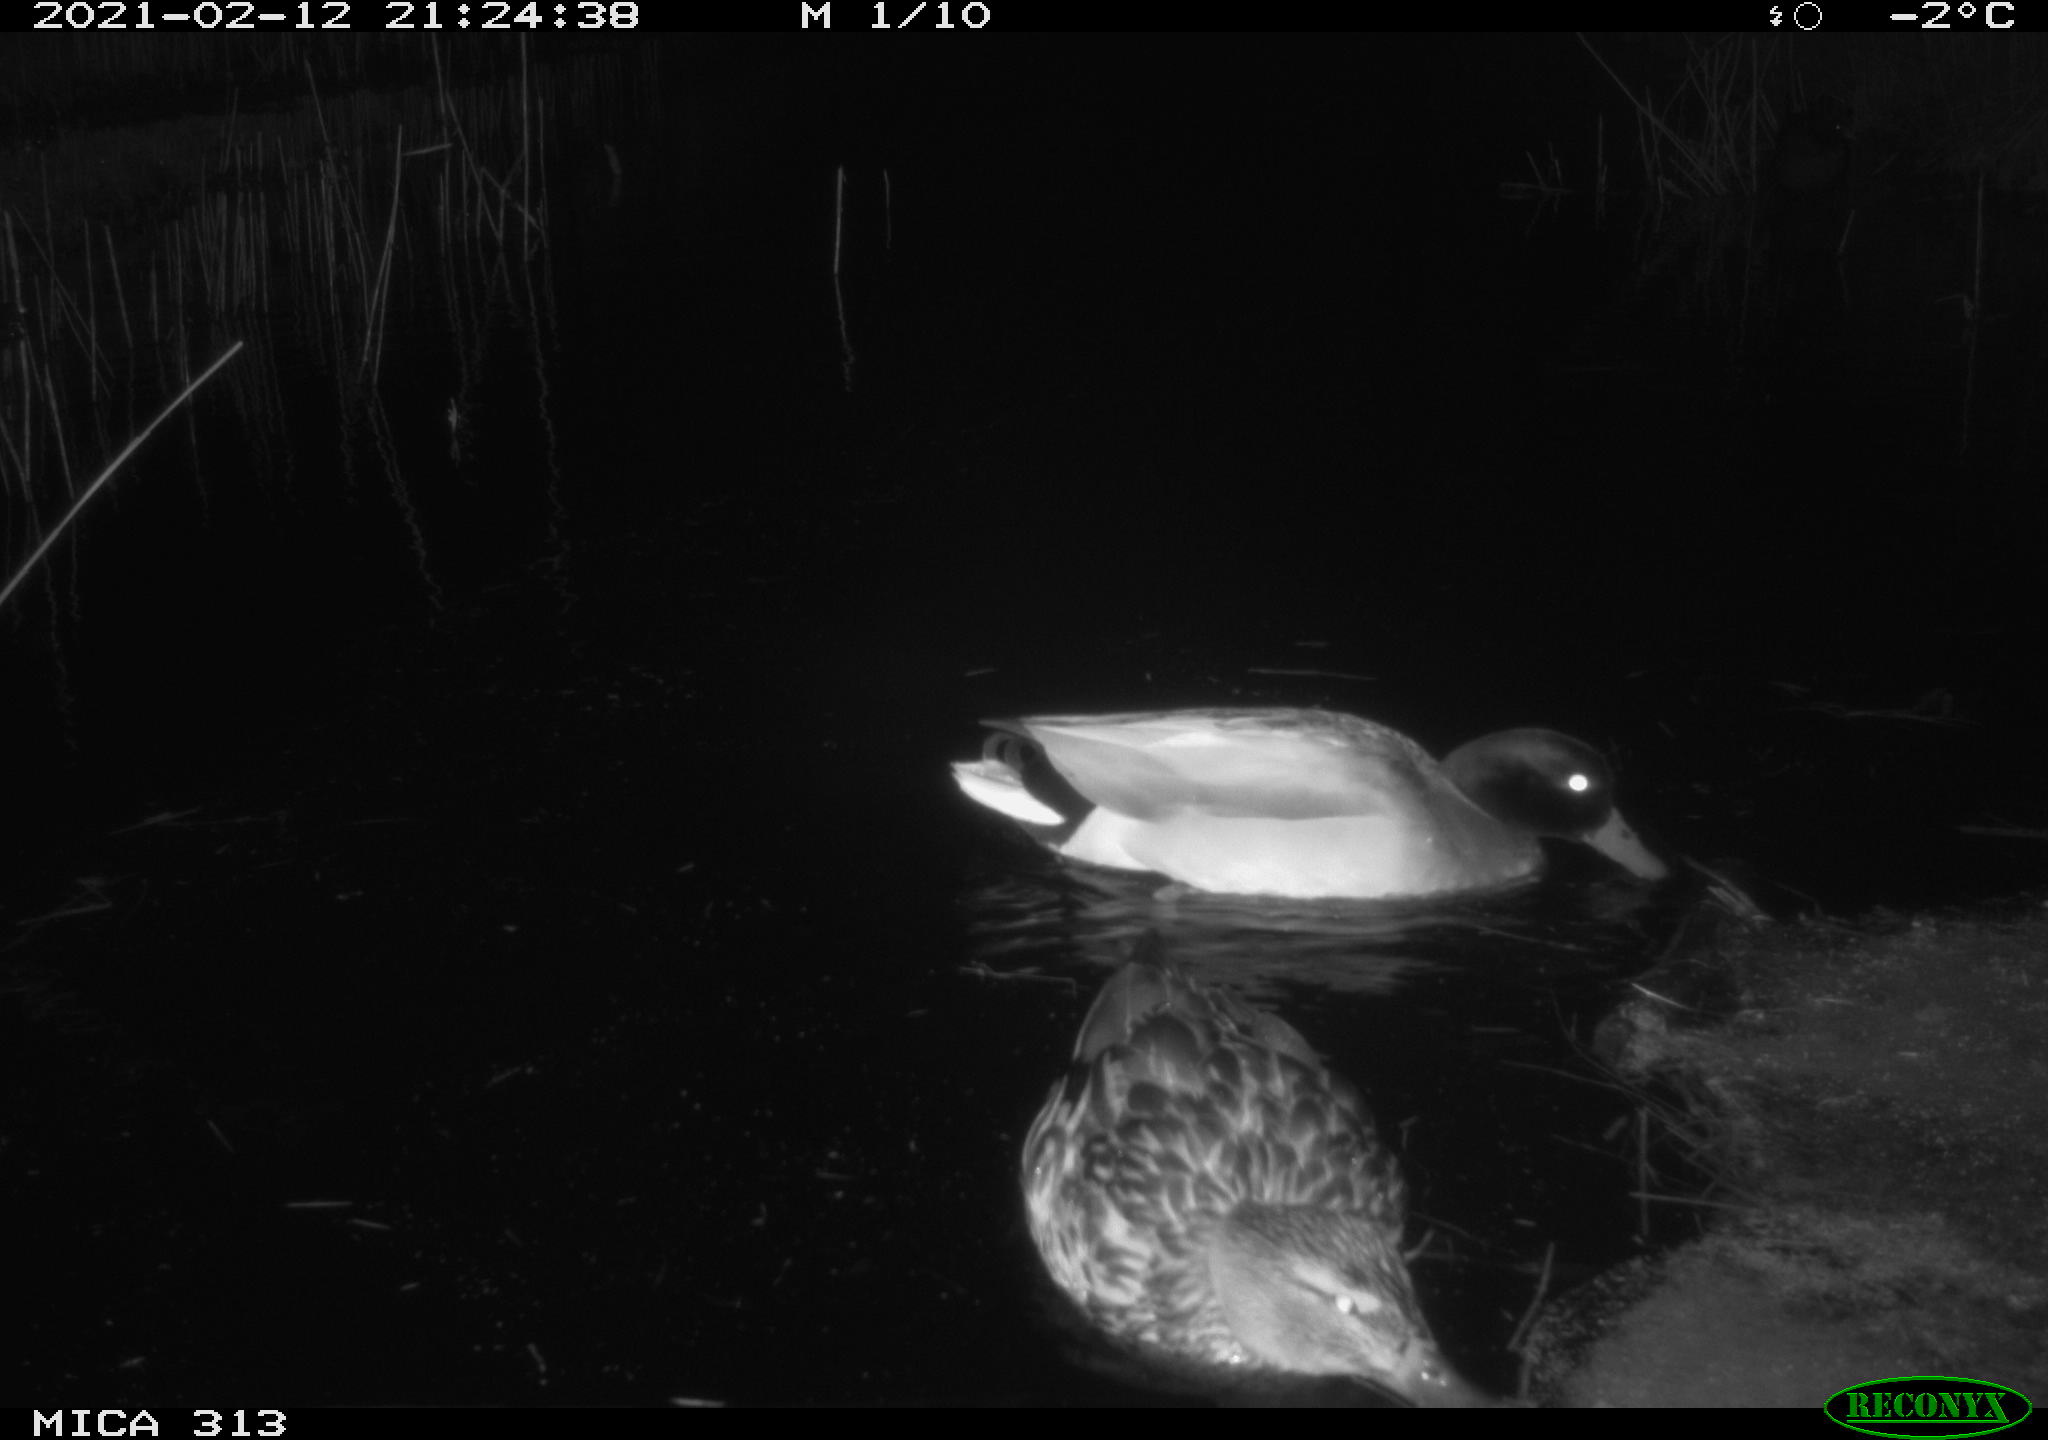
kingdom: Animalia
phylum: Chordata
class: Aves
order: Anseriformes
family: Anatidae
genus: Anas
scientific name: Anas
